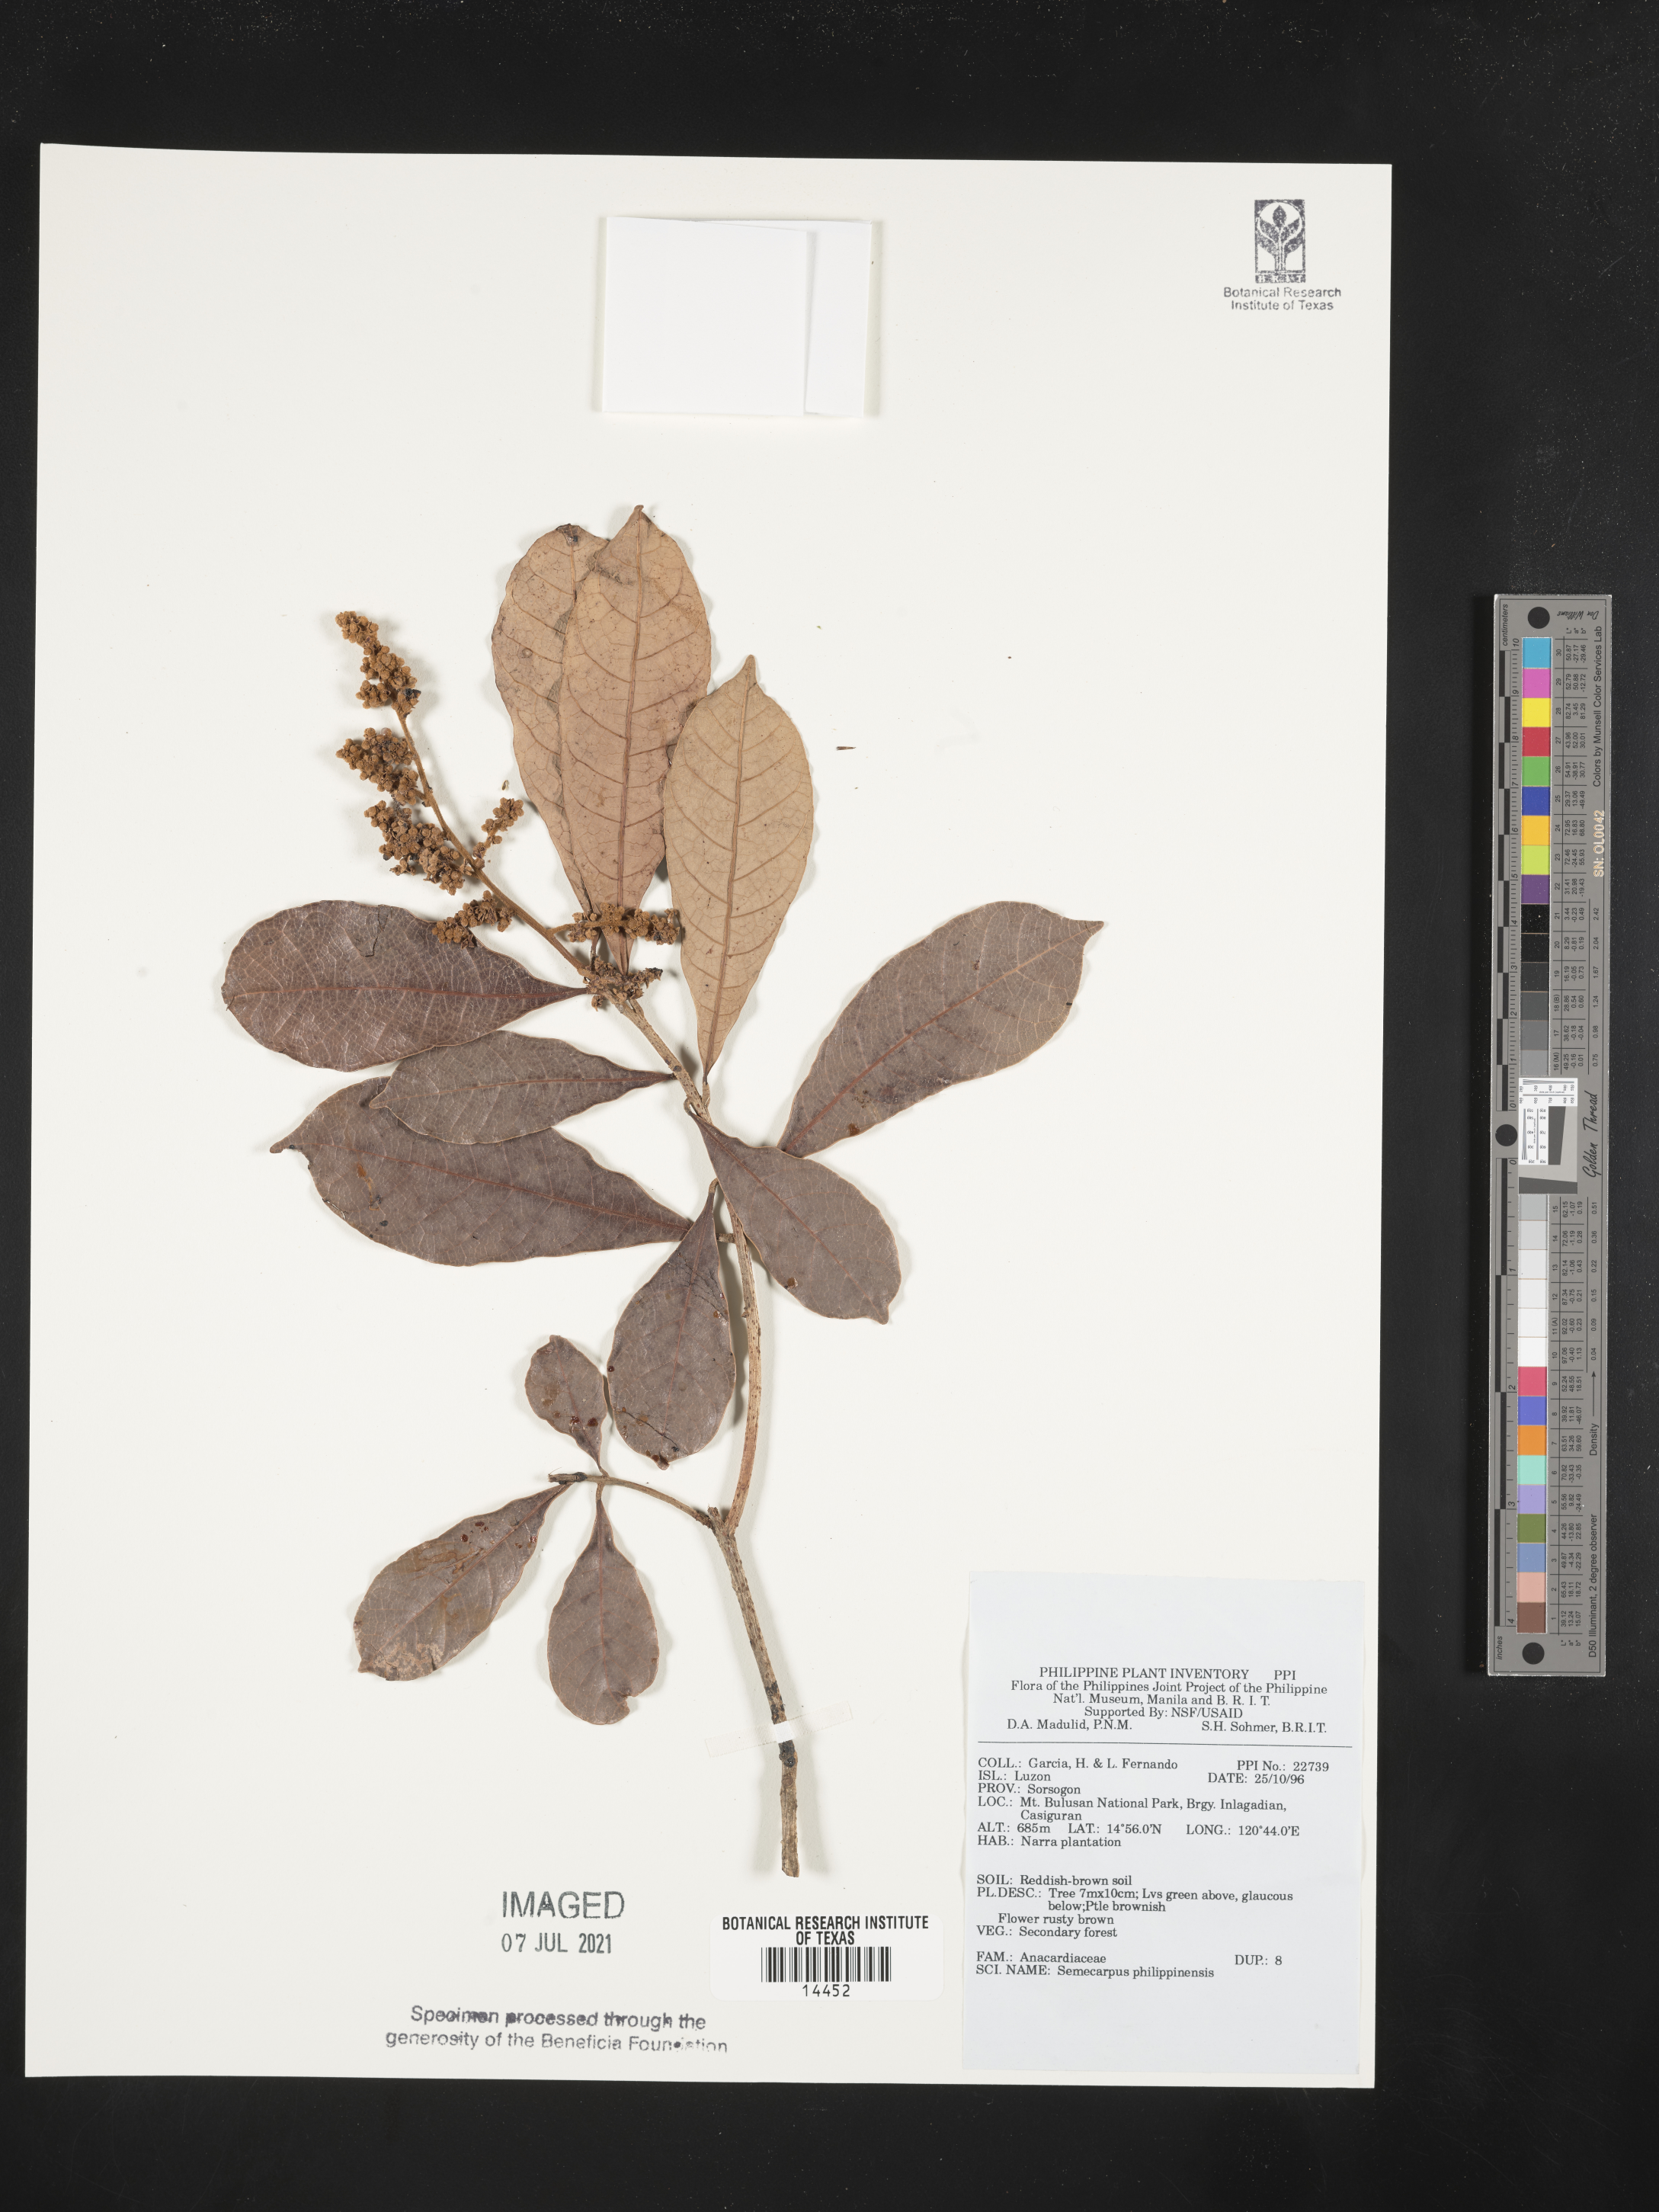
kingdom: Plantae
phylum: Tracheophyta
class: Magnoliopsida
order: Sapindales
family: Anacardiaceae
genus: Semecarpus
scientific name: Semecarpus cuneiformis
